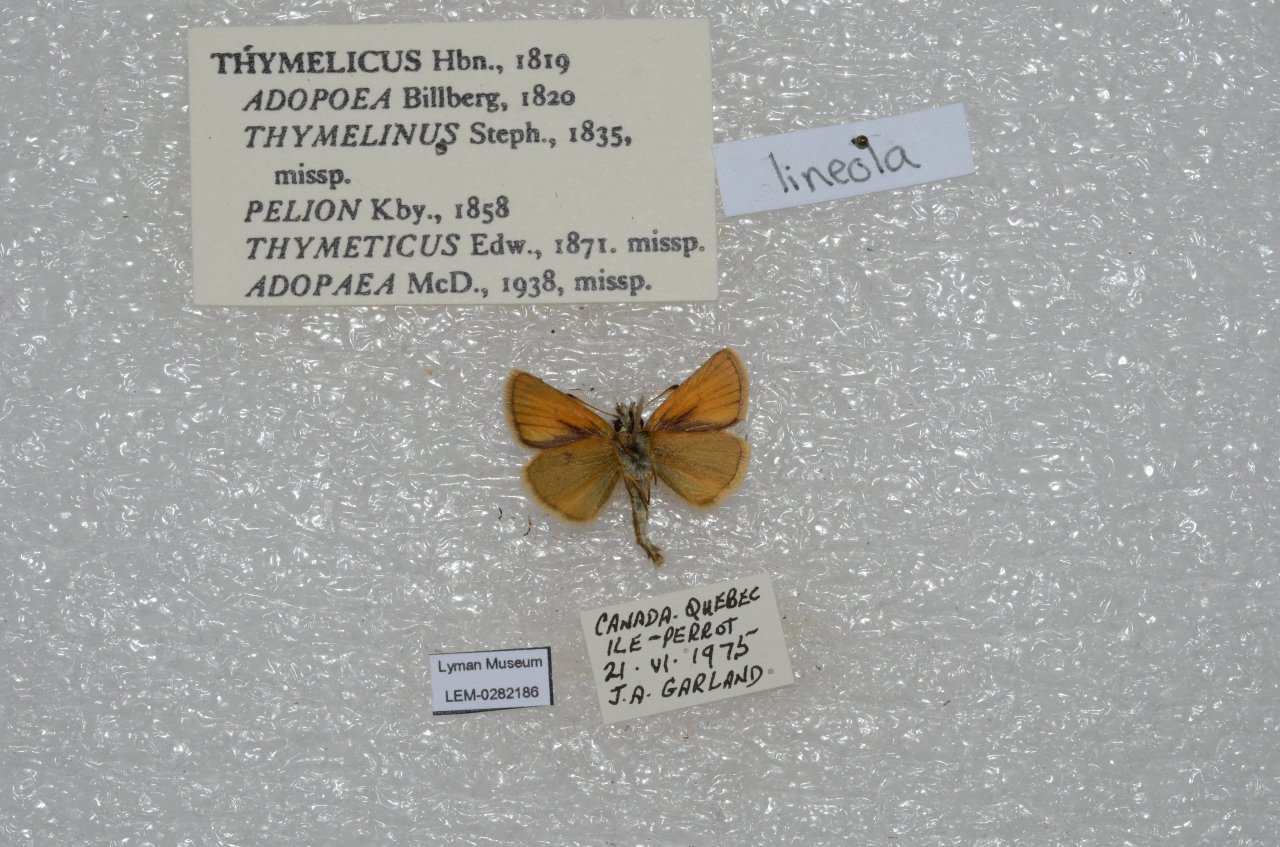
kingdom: Animalia
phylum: Arthropoda
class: Insecta
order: Lepidoptera
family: Hesperiidae
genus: Thymelicus
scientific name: Thymelicus lineola
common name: European Skipper
